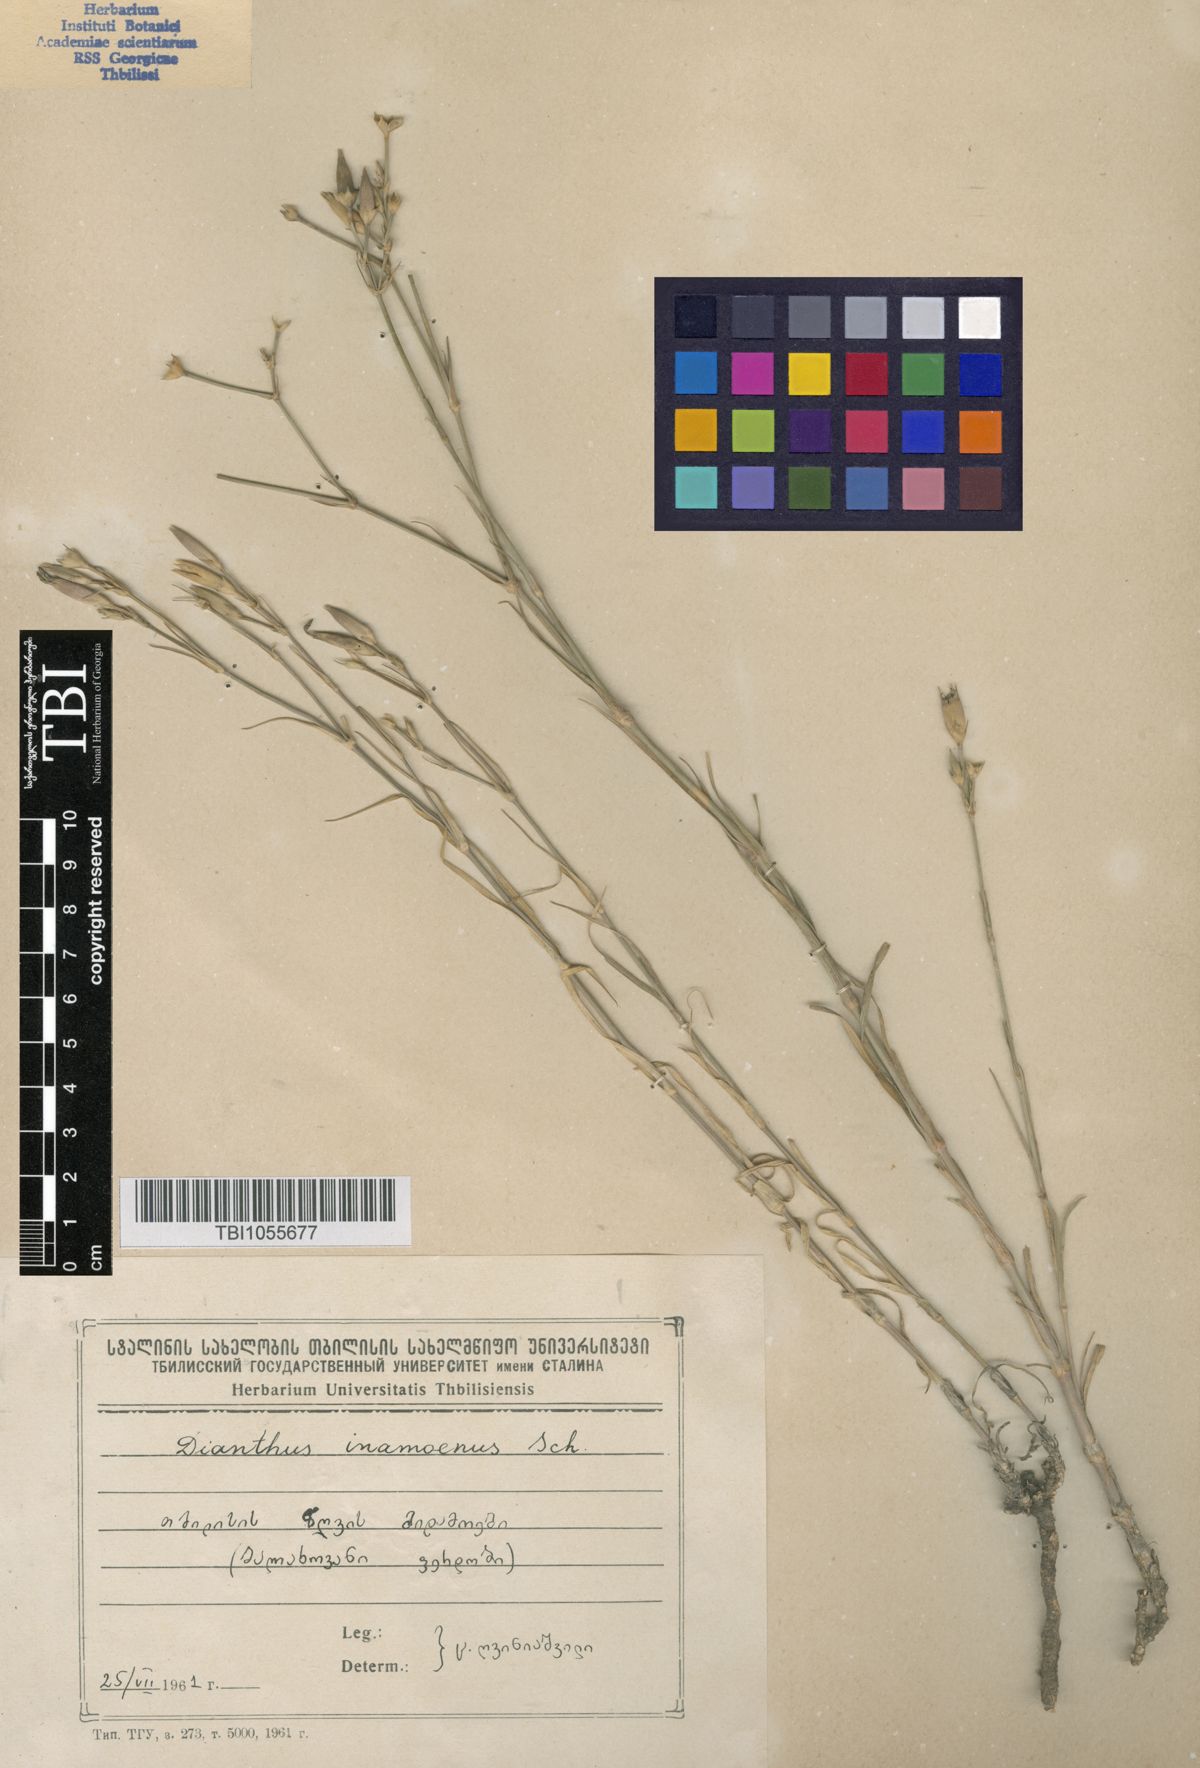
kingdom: Plantae
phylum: Tracheophyta
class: Magnoliopsida
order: Caryophyllales
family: Caryophyllaceae
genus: Dianthus
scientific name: Dianthus inamoenus
